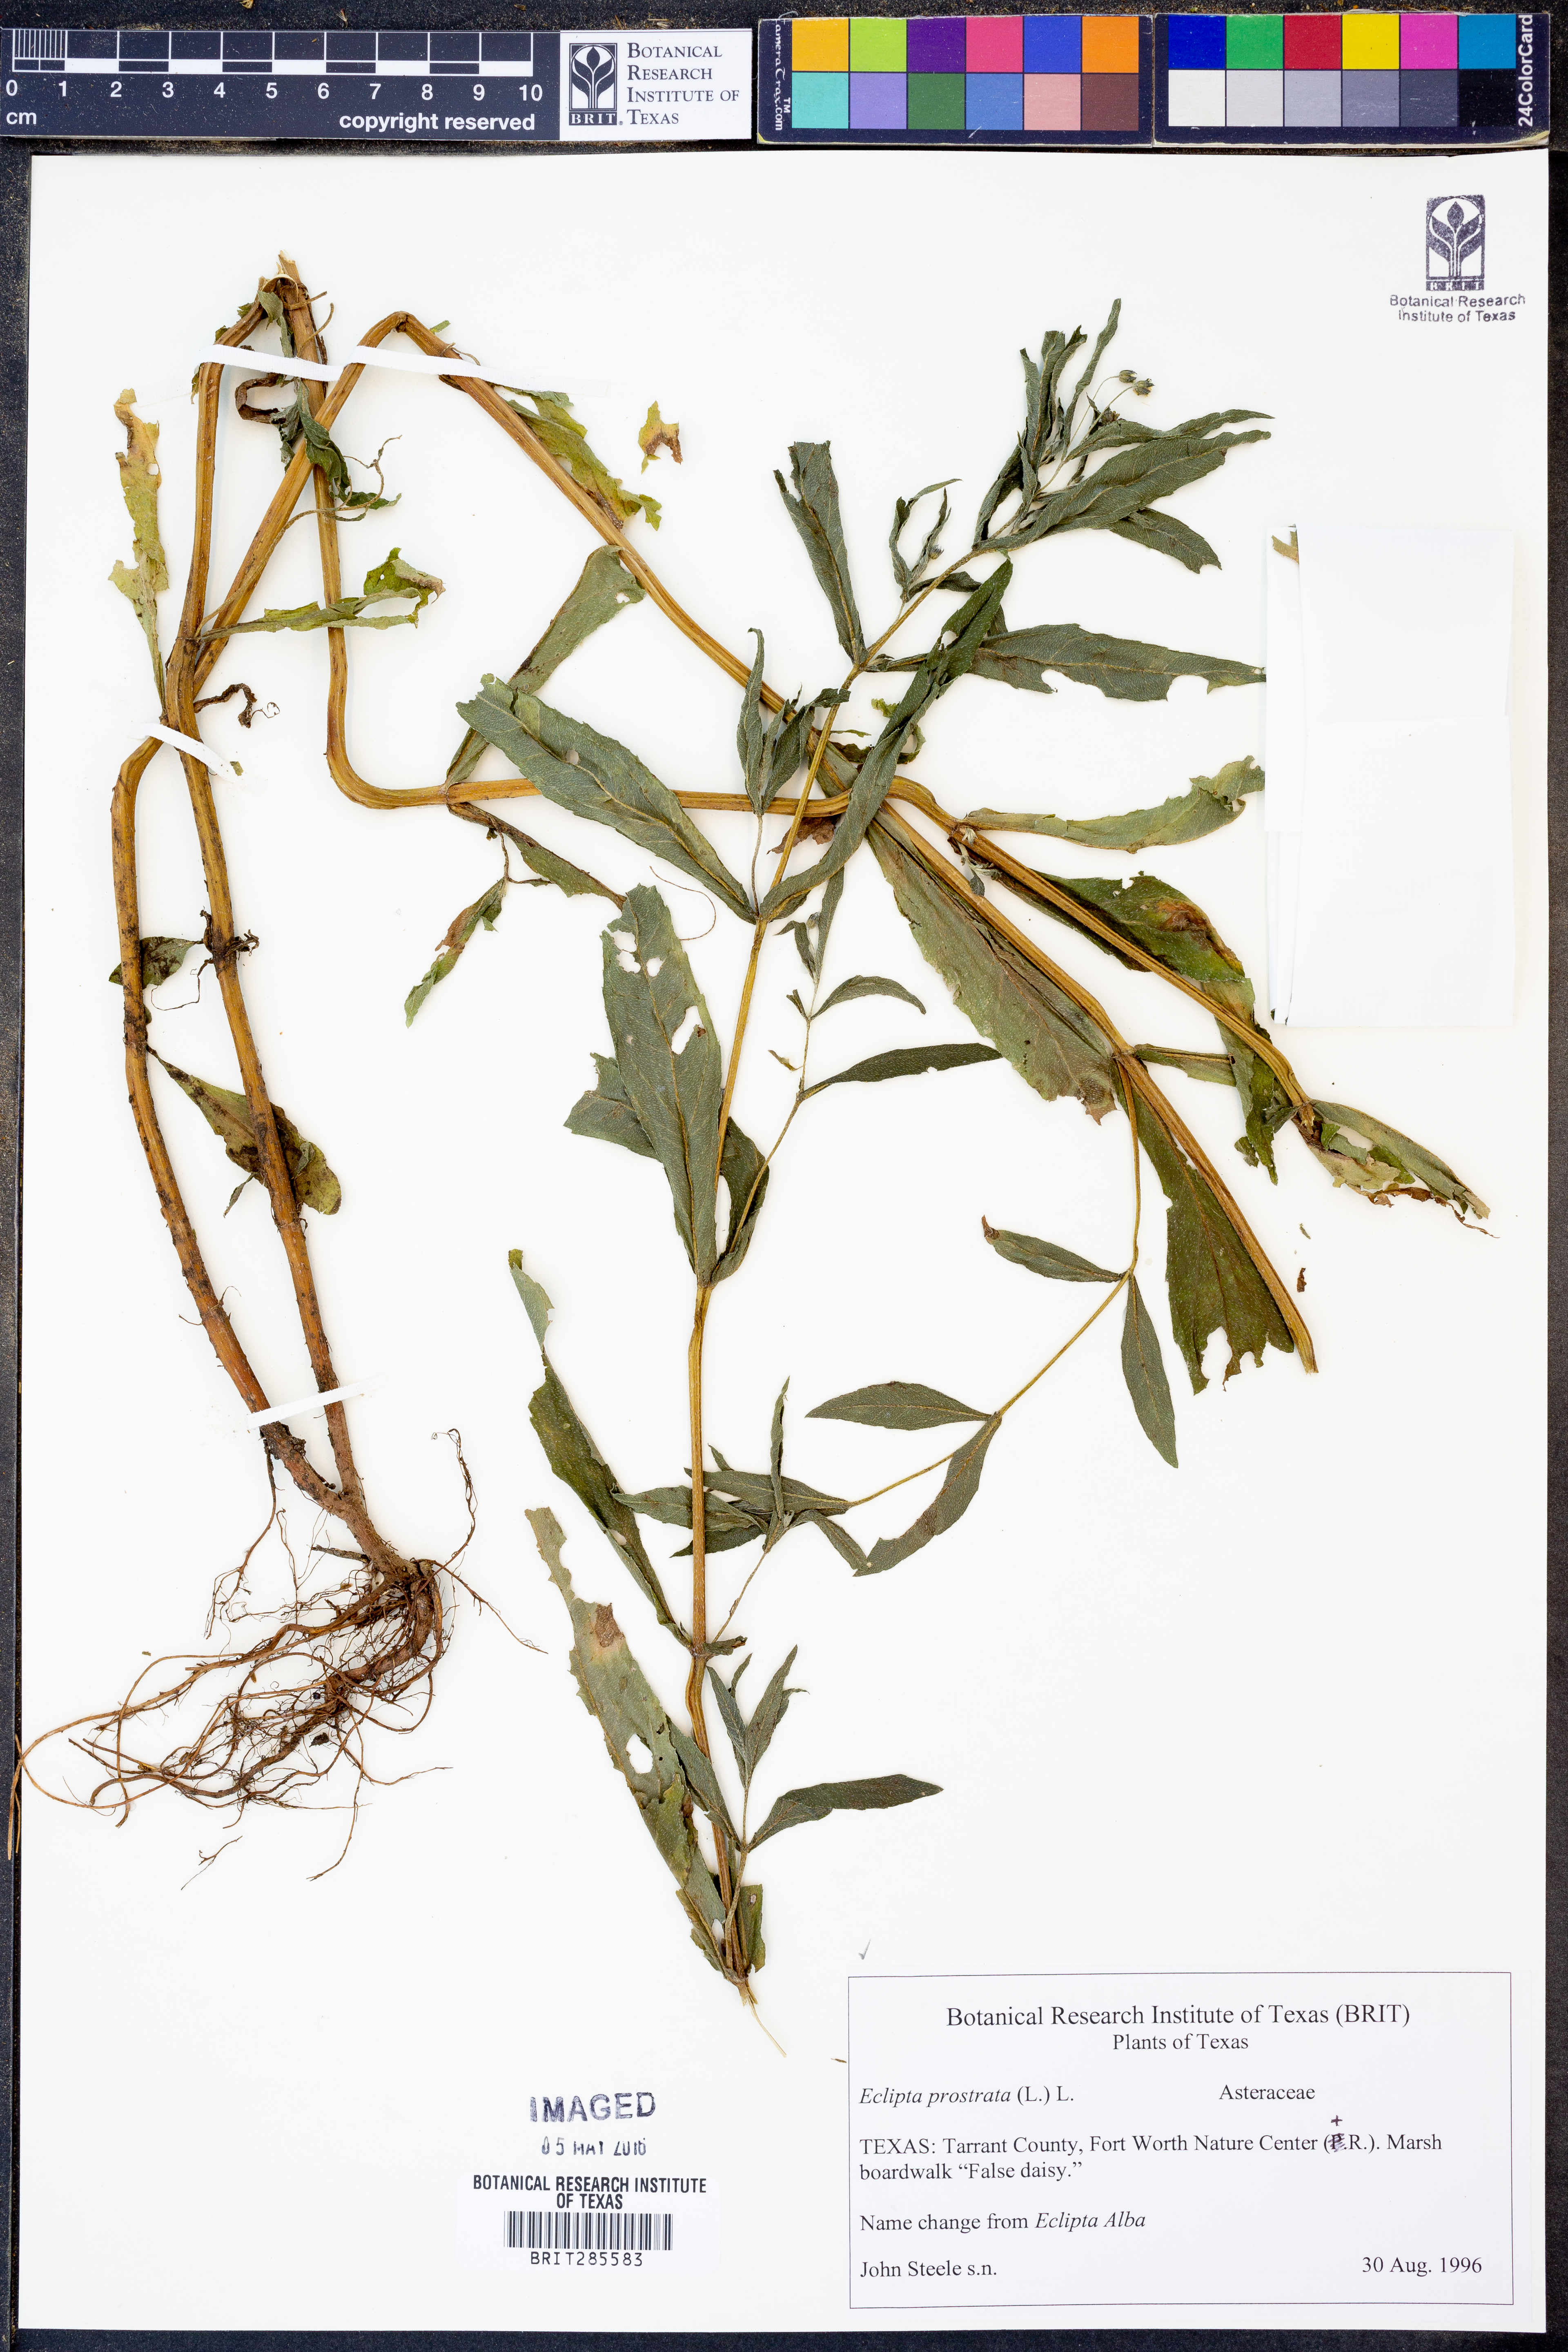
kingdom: Plantae
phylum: Tracheophyta
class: Magnoliopsida
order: Asterales
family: Asteraceae
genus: Eclipta
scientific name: Eclipta prostrata
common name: False daisy
